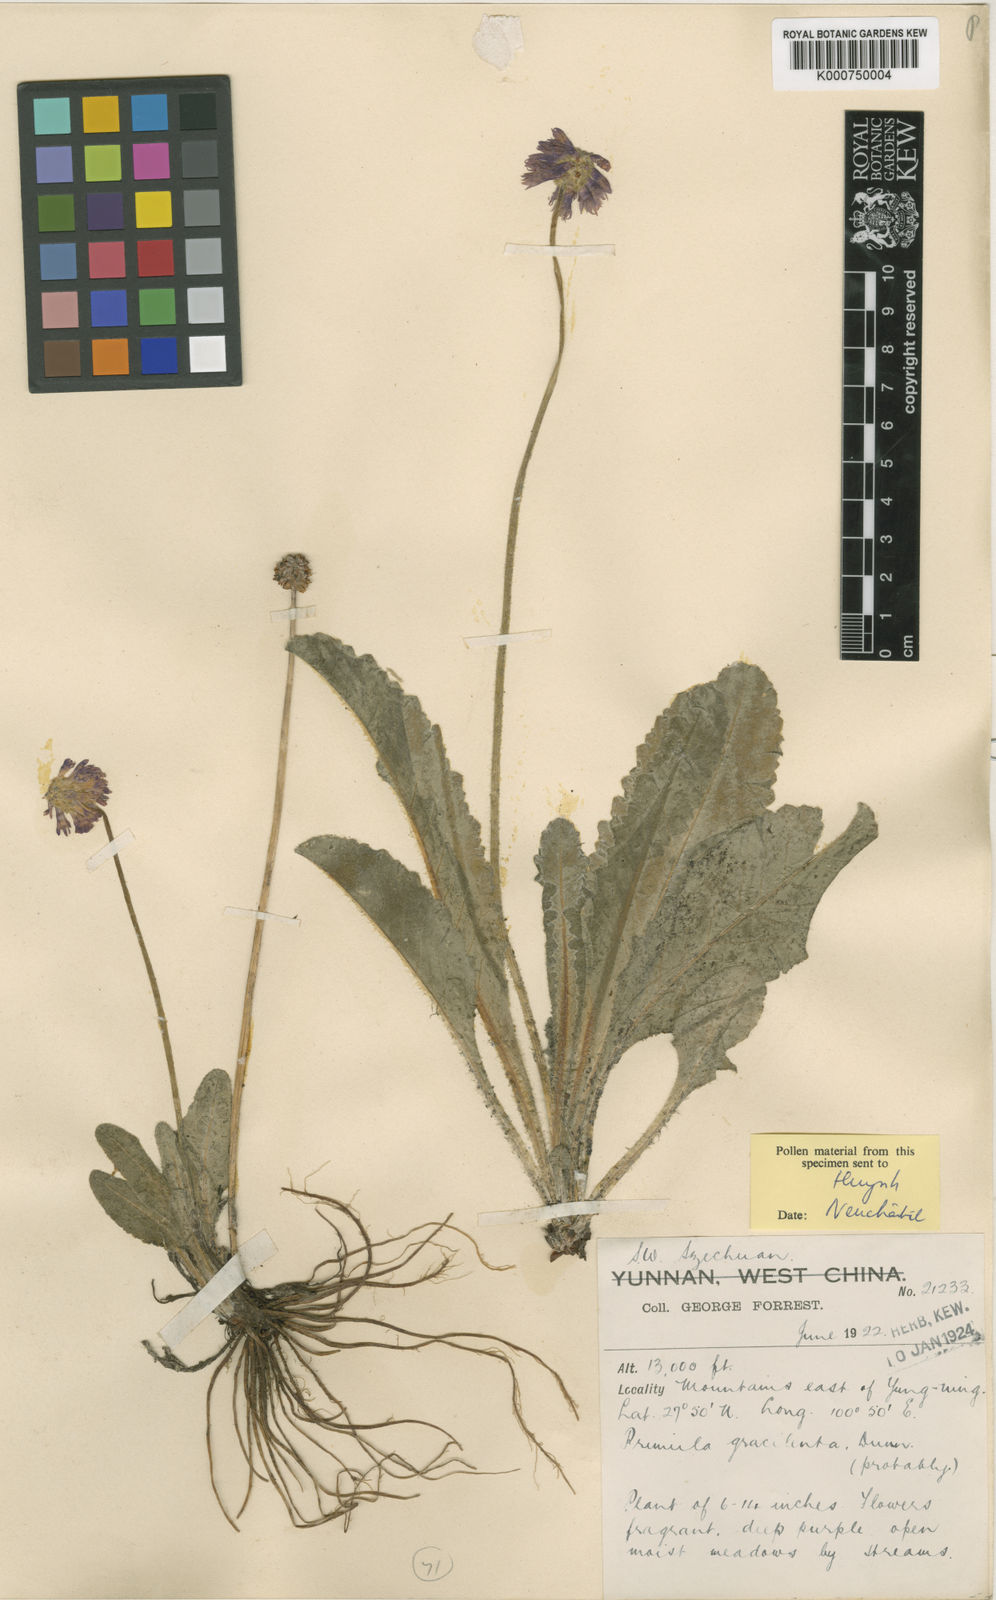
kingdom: Plantae
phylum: Tracheophyta
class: Magnoliopsida
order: Ericales
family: Primulaceae
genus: Primula
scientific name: Primula gracilenta
